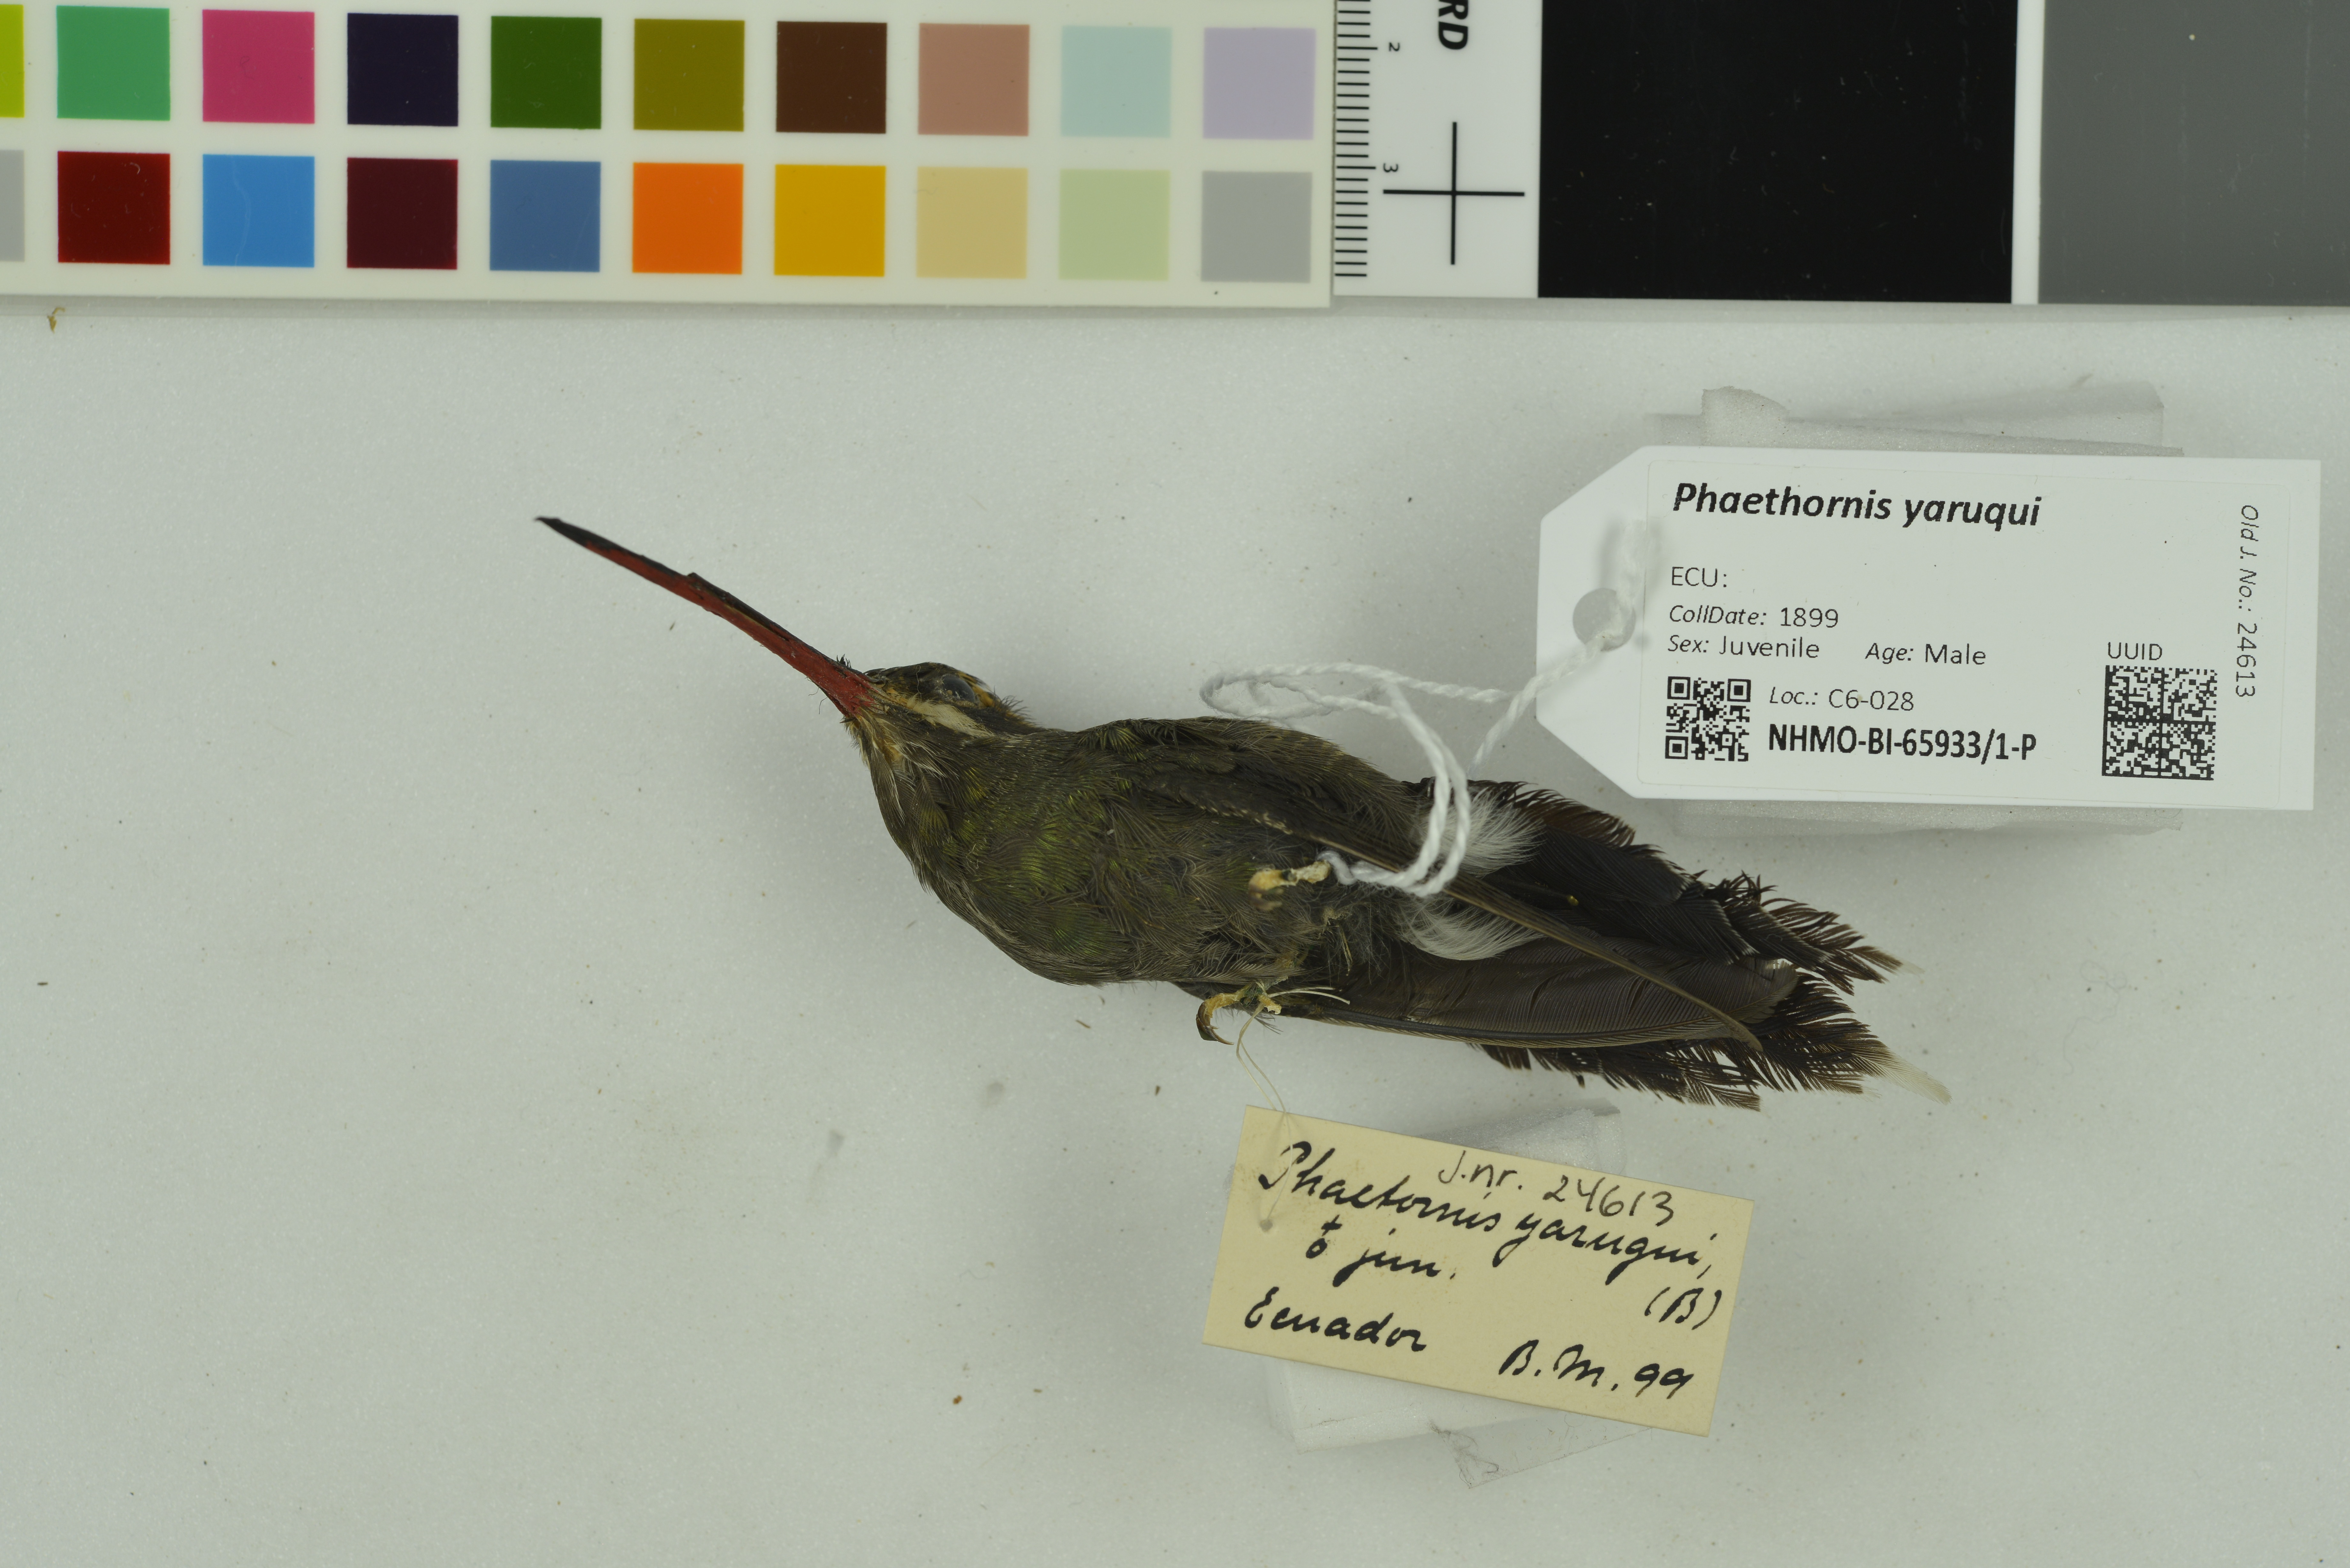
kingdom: Animalia
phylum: Chordata
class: Aves
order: Apodiformes
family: Trochilidae
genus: Phaethornis
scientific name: Phaethornis yaruqui
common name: White-whiskered hermit
